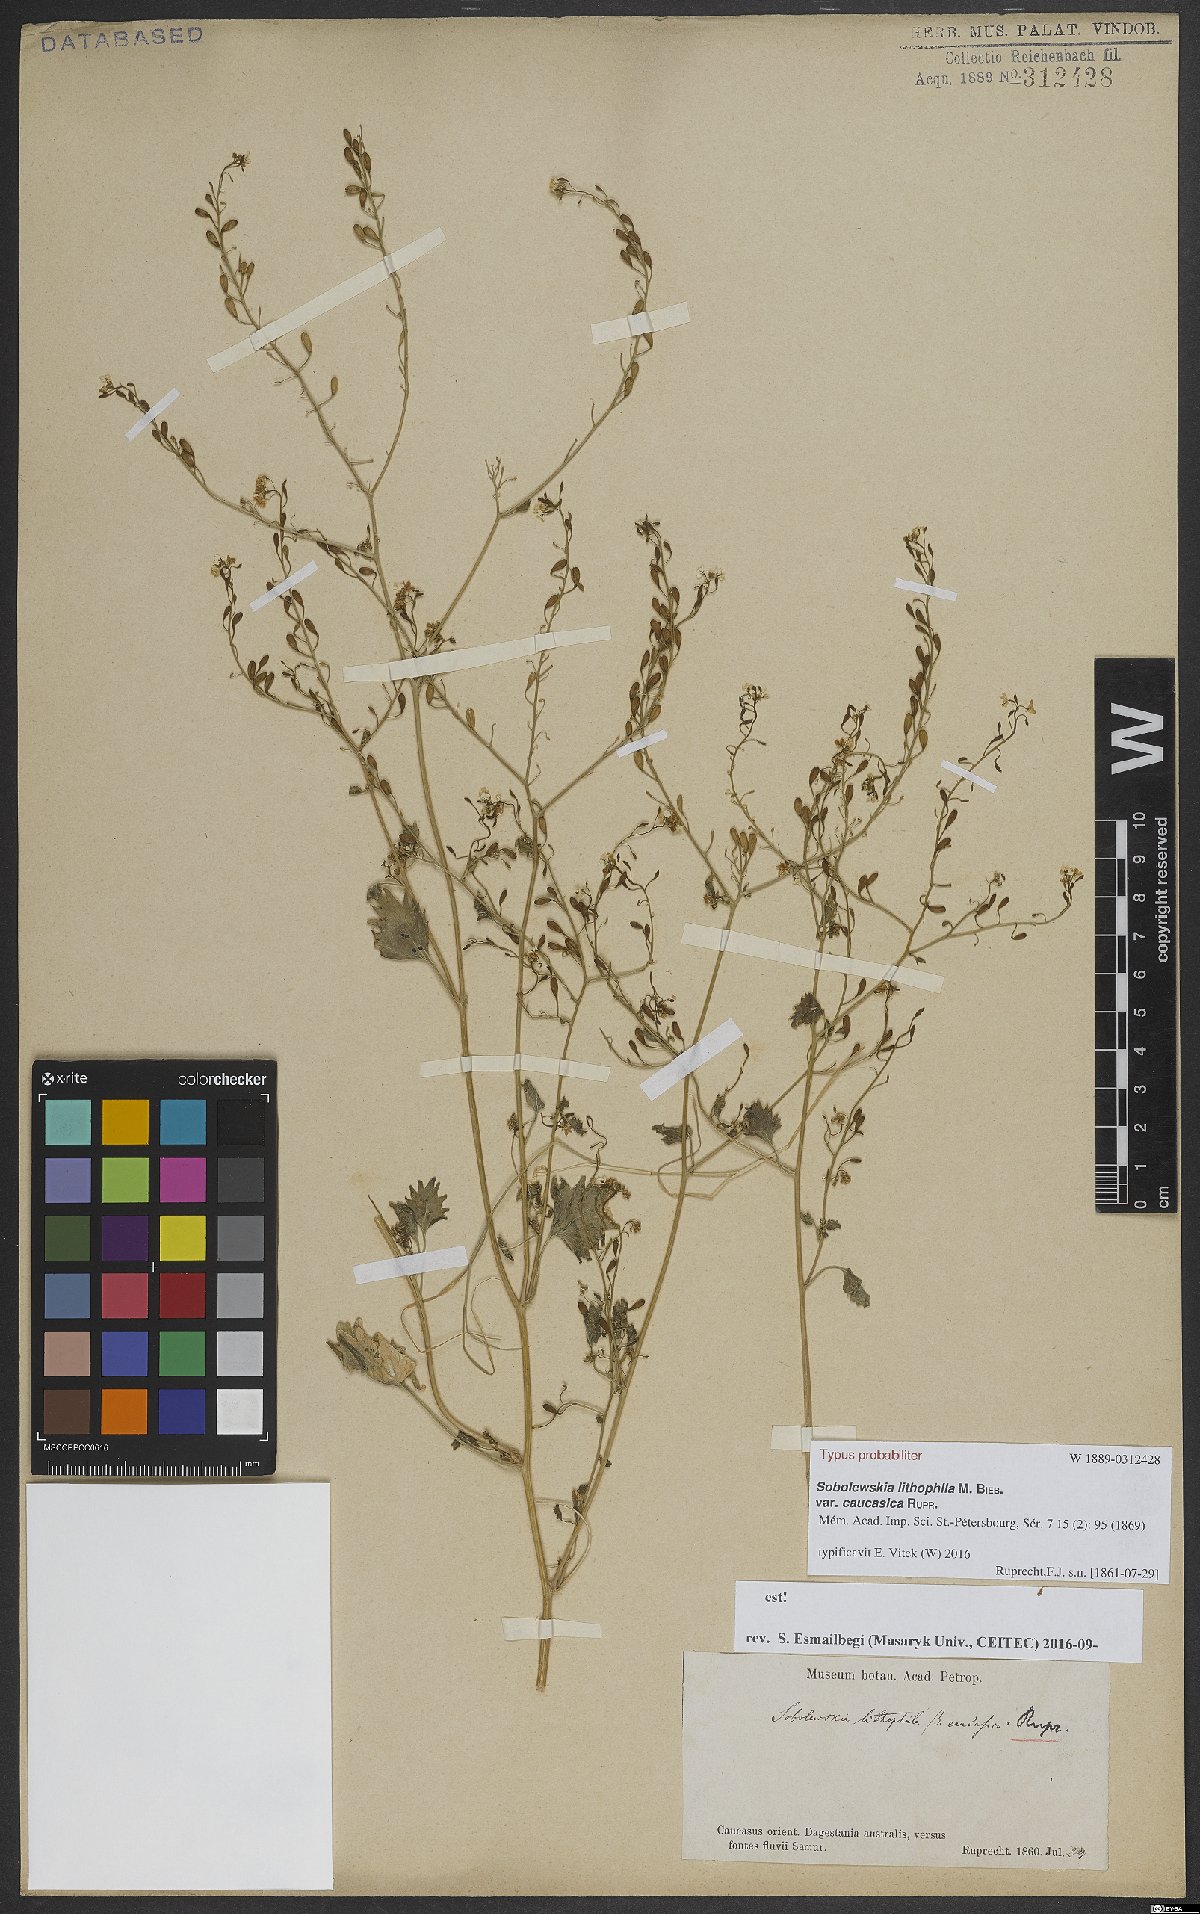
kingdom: Plantae
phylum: Tracheophyta
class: Magnoliopsida
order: Brassicales
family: Brassicaceae
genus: Sobolewskia
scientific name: Sobolewskia caucasica
